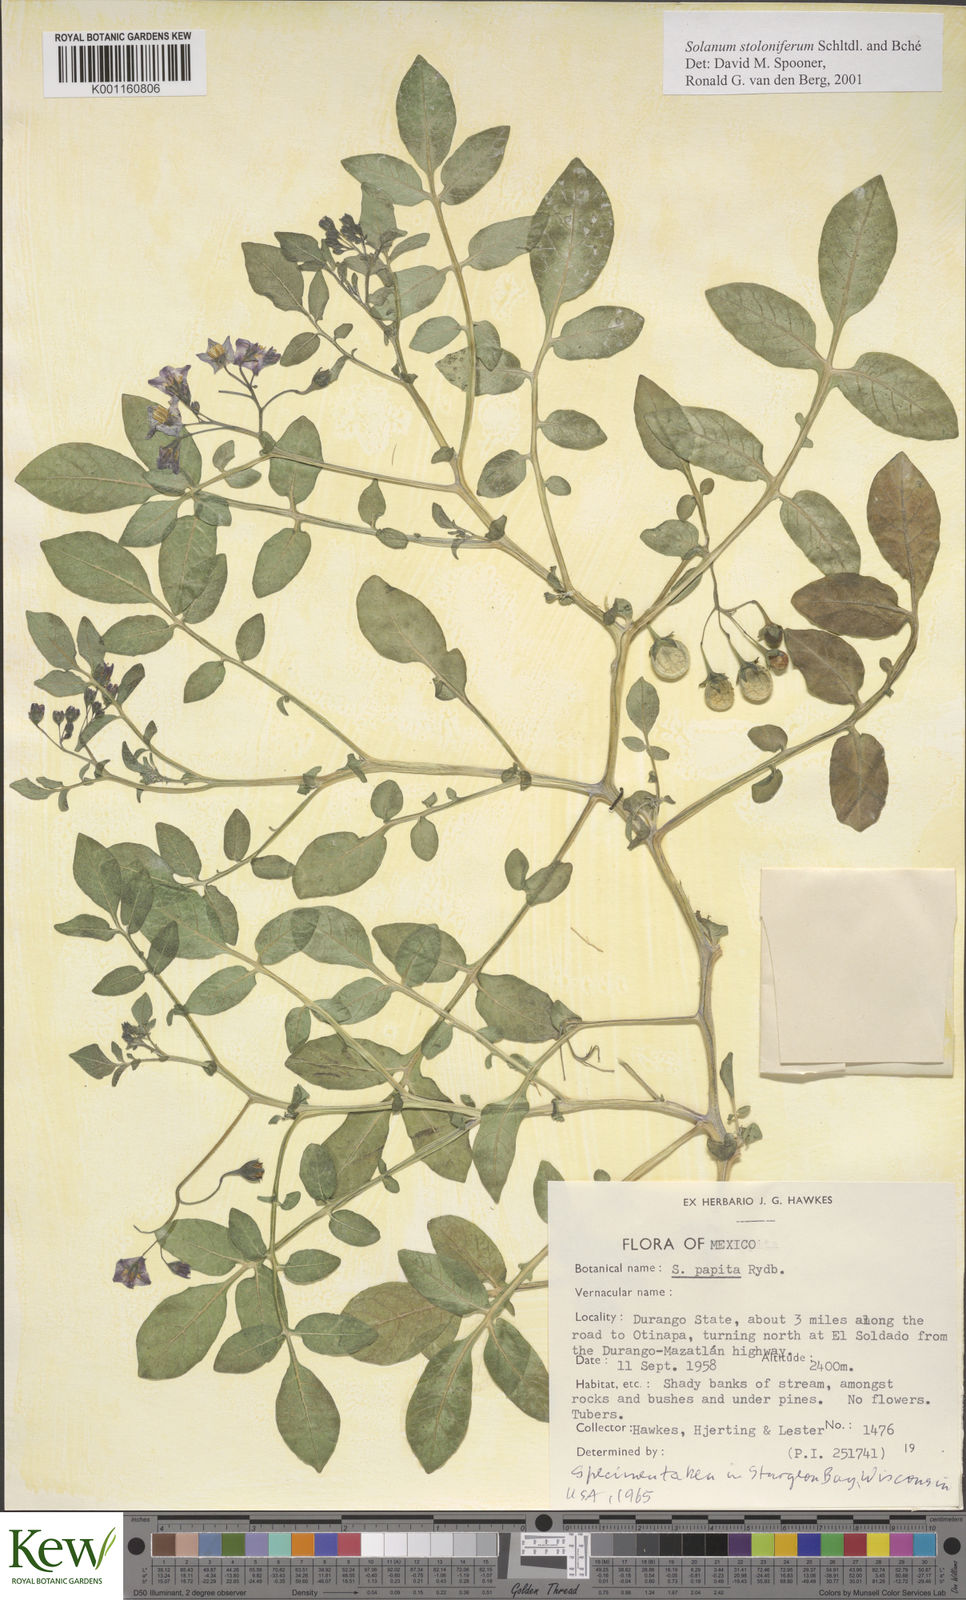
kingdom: Plantae
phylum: Tracheophyta
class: Magnoliopsida
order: Solanales
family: Solanaceae
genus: Solanum
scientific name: Solanum stoloniferum
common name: Fendler's nighshade
